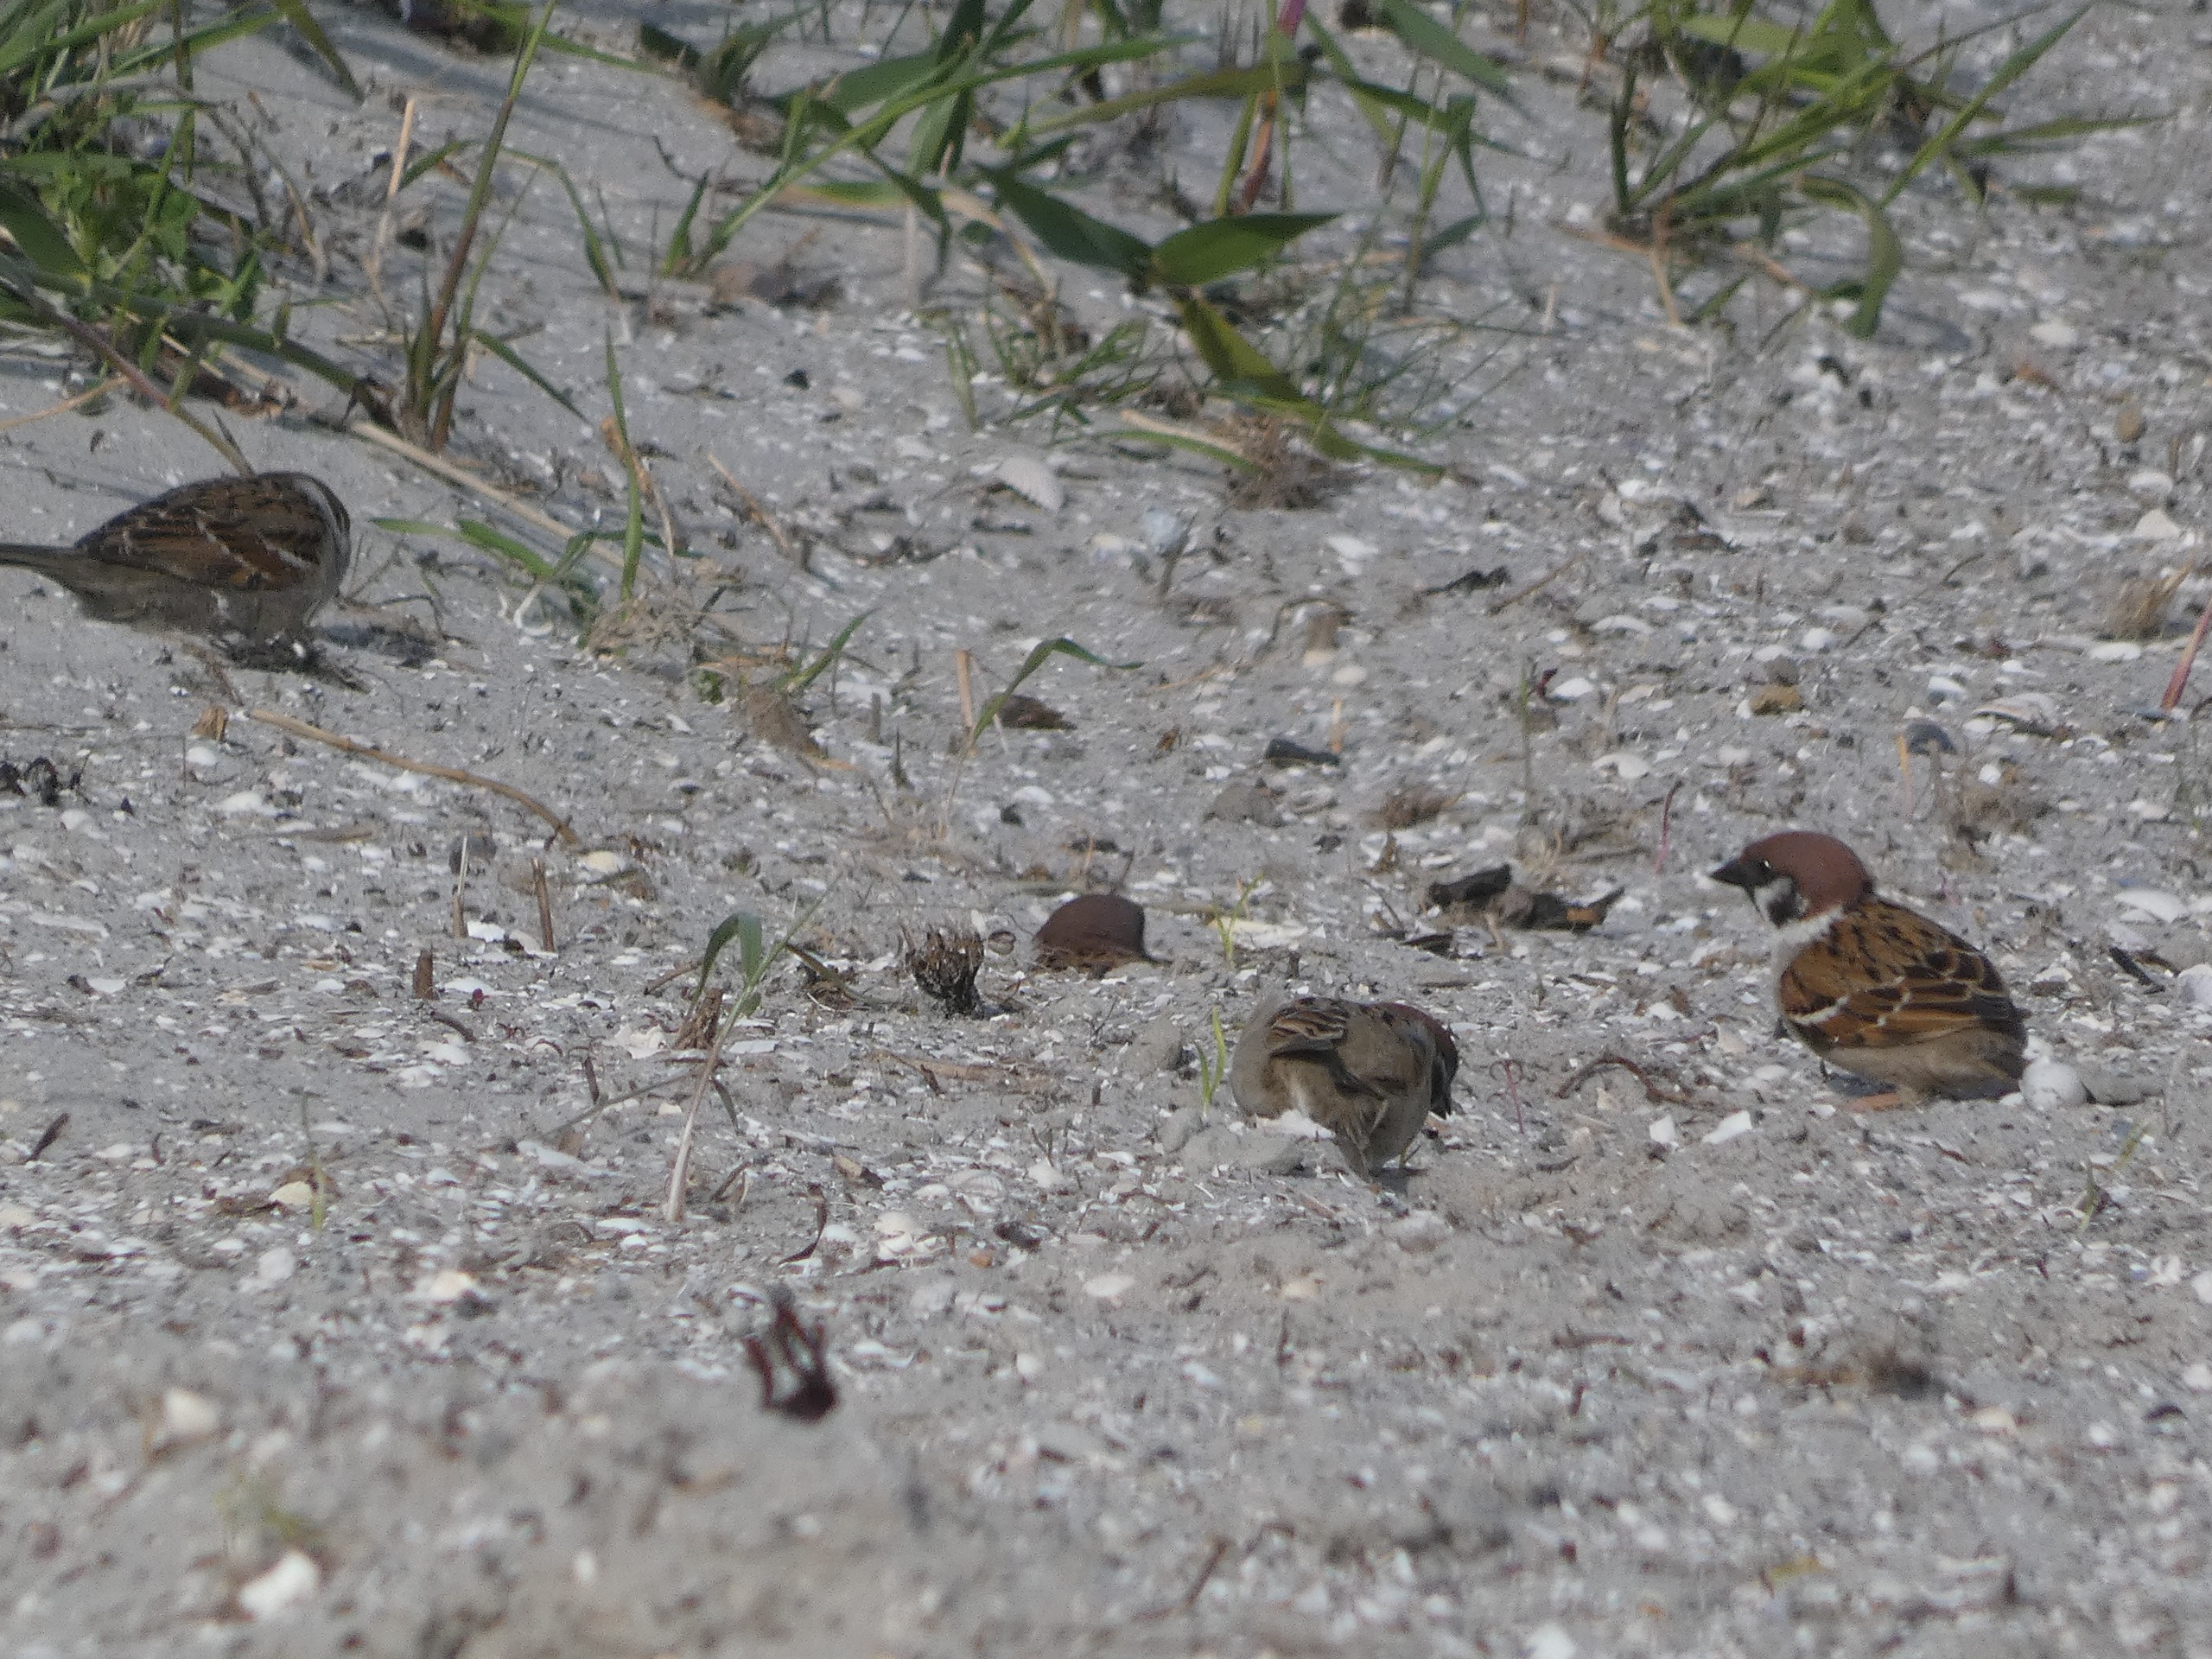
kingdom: Animalia
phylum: Chordata
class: Aves
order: Passeriformes
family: Passeridae
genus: Passer
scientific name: Passer montanus
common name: Skovspurv
